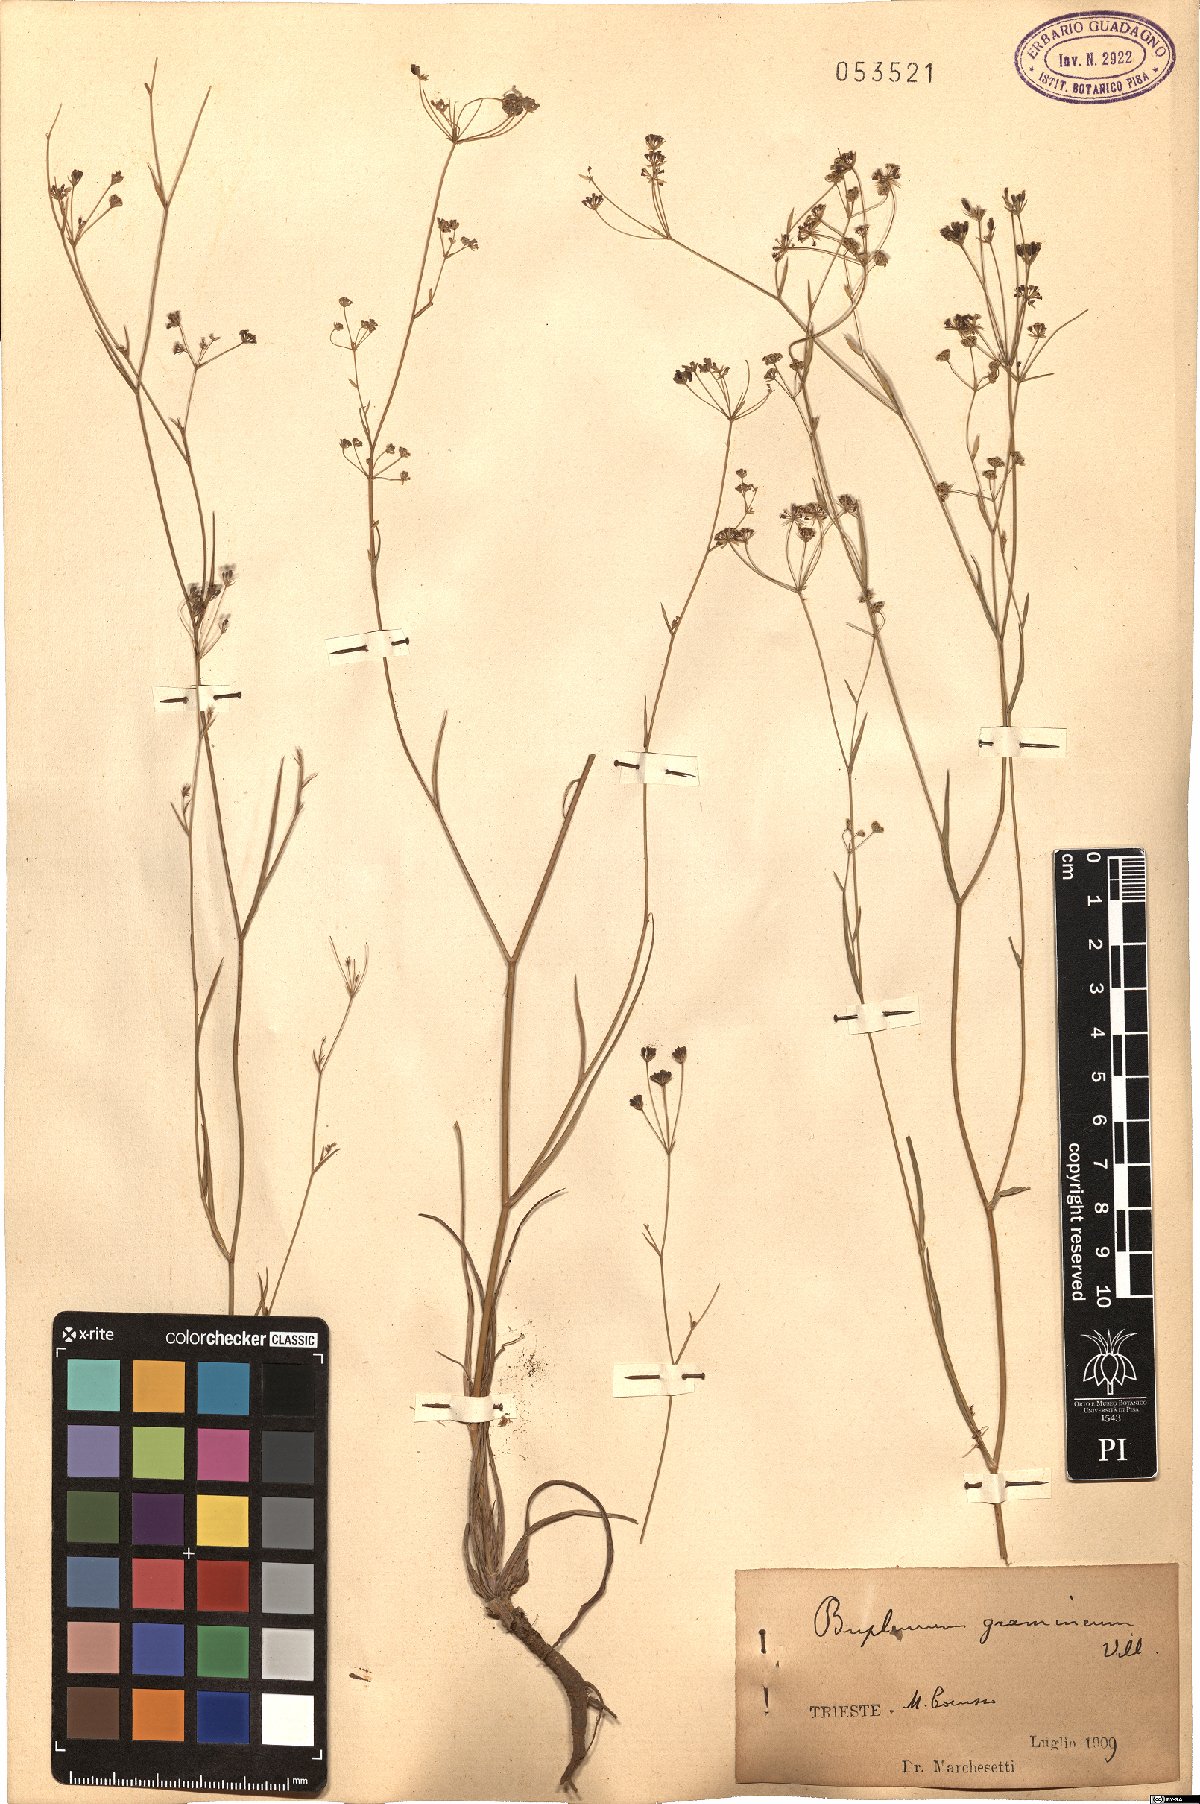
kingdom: Plantae
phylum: Tracheophyta
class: Magnoliopsida
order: Apiales
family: Apiaceae
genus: Bupleurum
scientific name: Bupleurum ranunculoides
